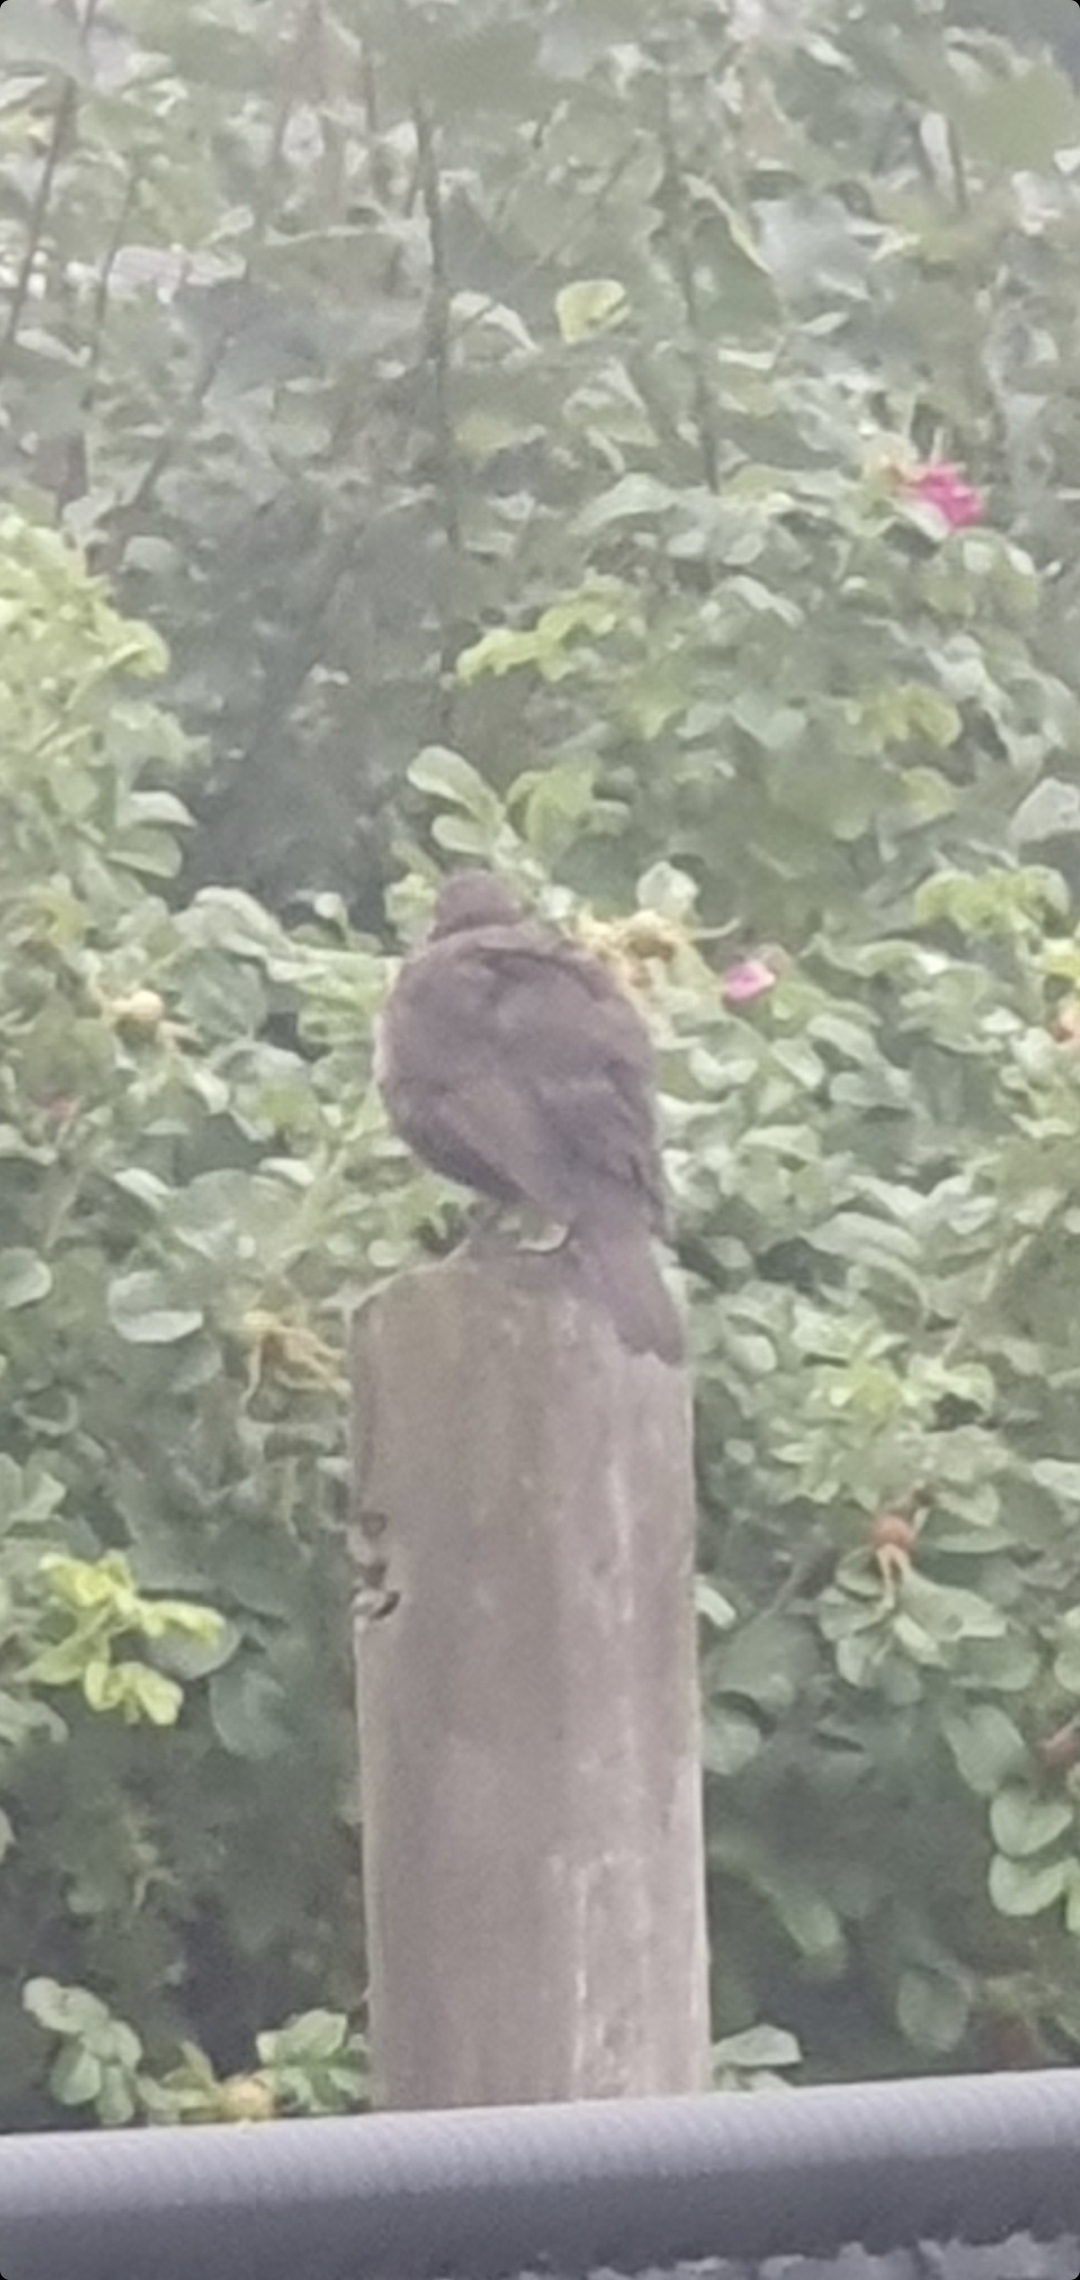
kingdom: Animalia
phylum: Chordata
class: Aves
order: Passeriformes
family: Turdidae
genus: Turdus
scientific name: Turdus merula
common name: Solsort
